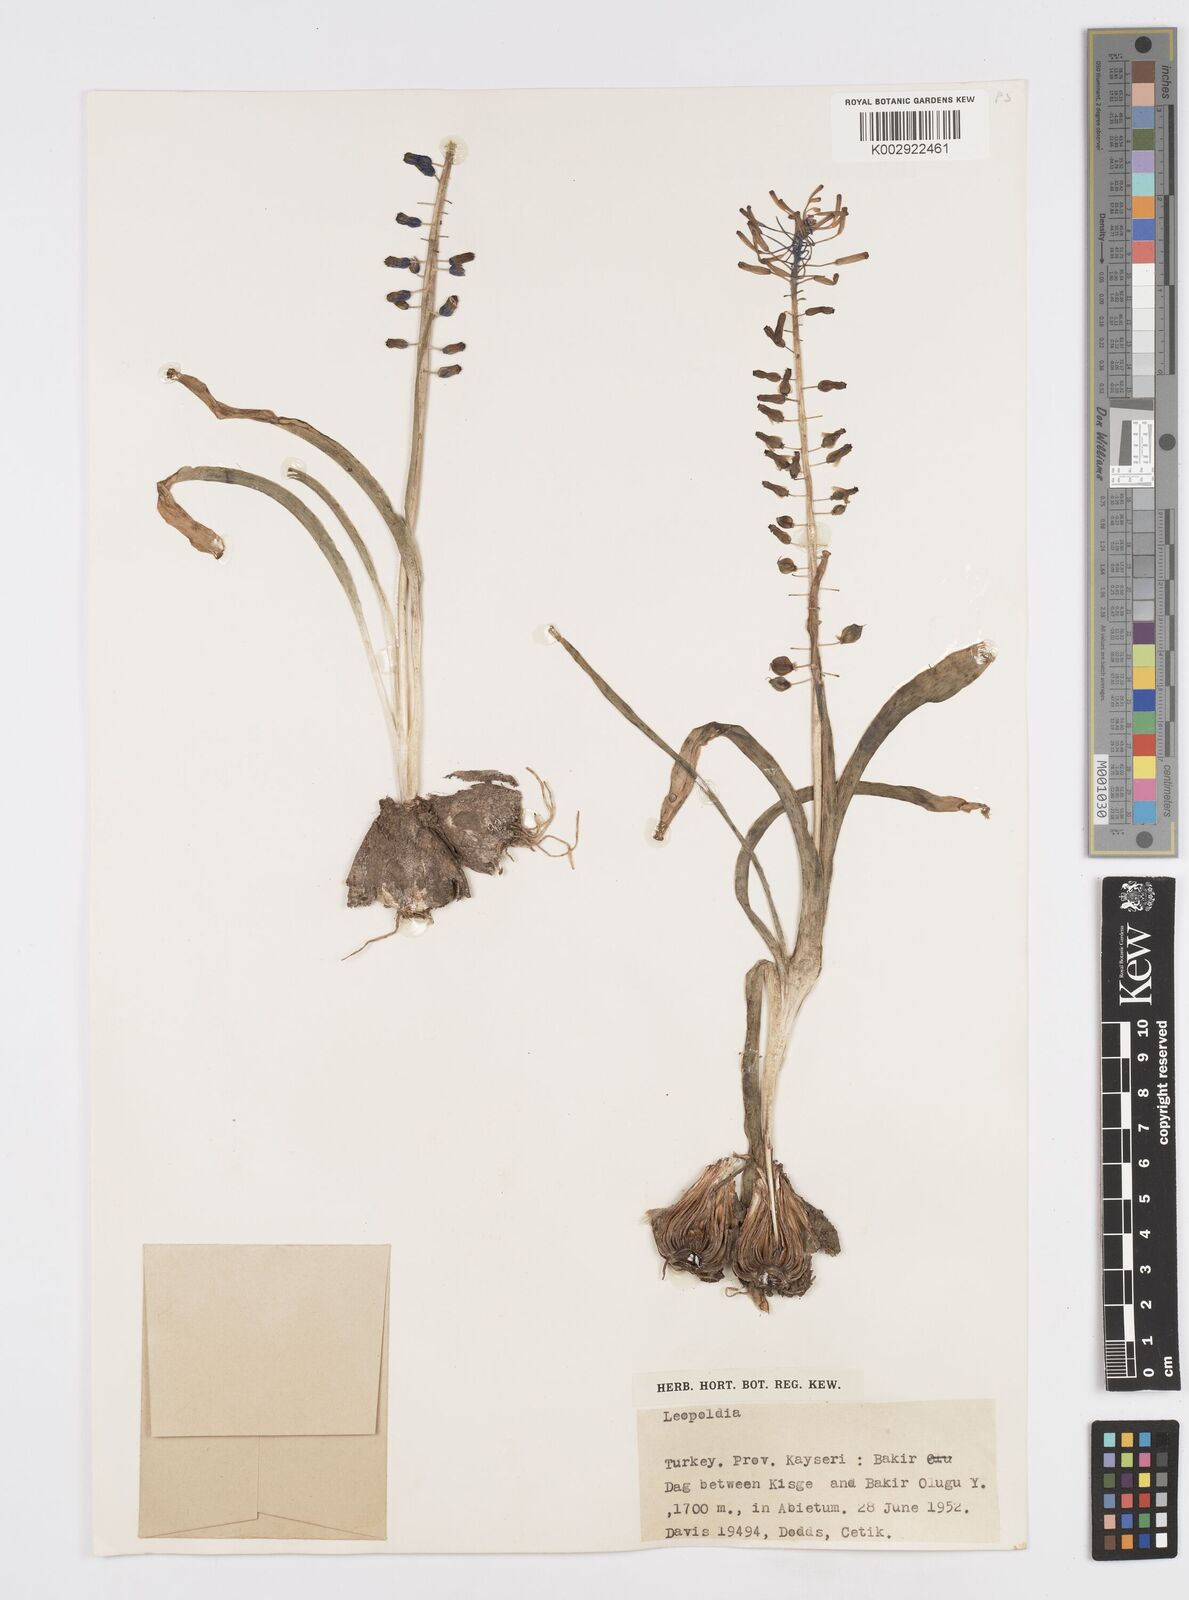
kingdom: Plantae
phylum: Tracheophyta
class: Liliopsida
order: Asparagales
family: Asparagaceae
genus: Muscari
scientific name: Muscari tenuiflorum
